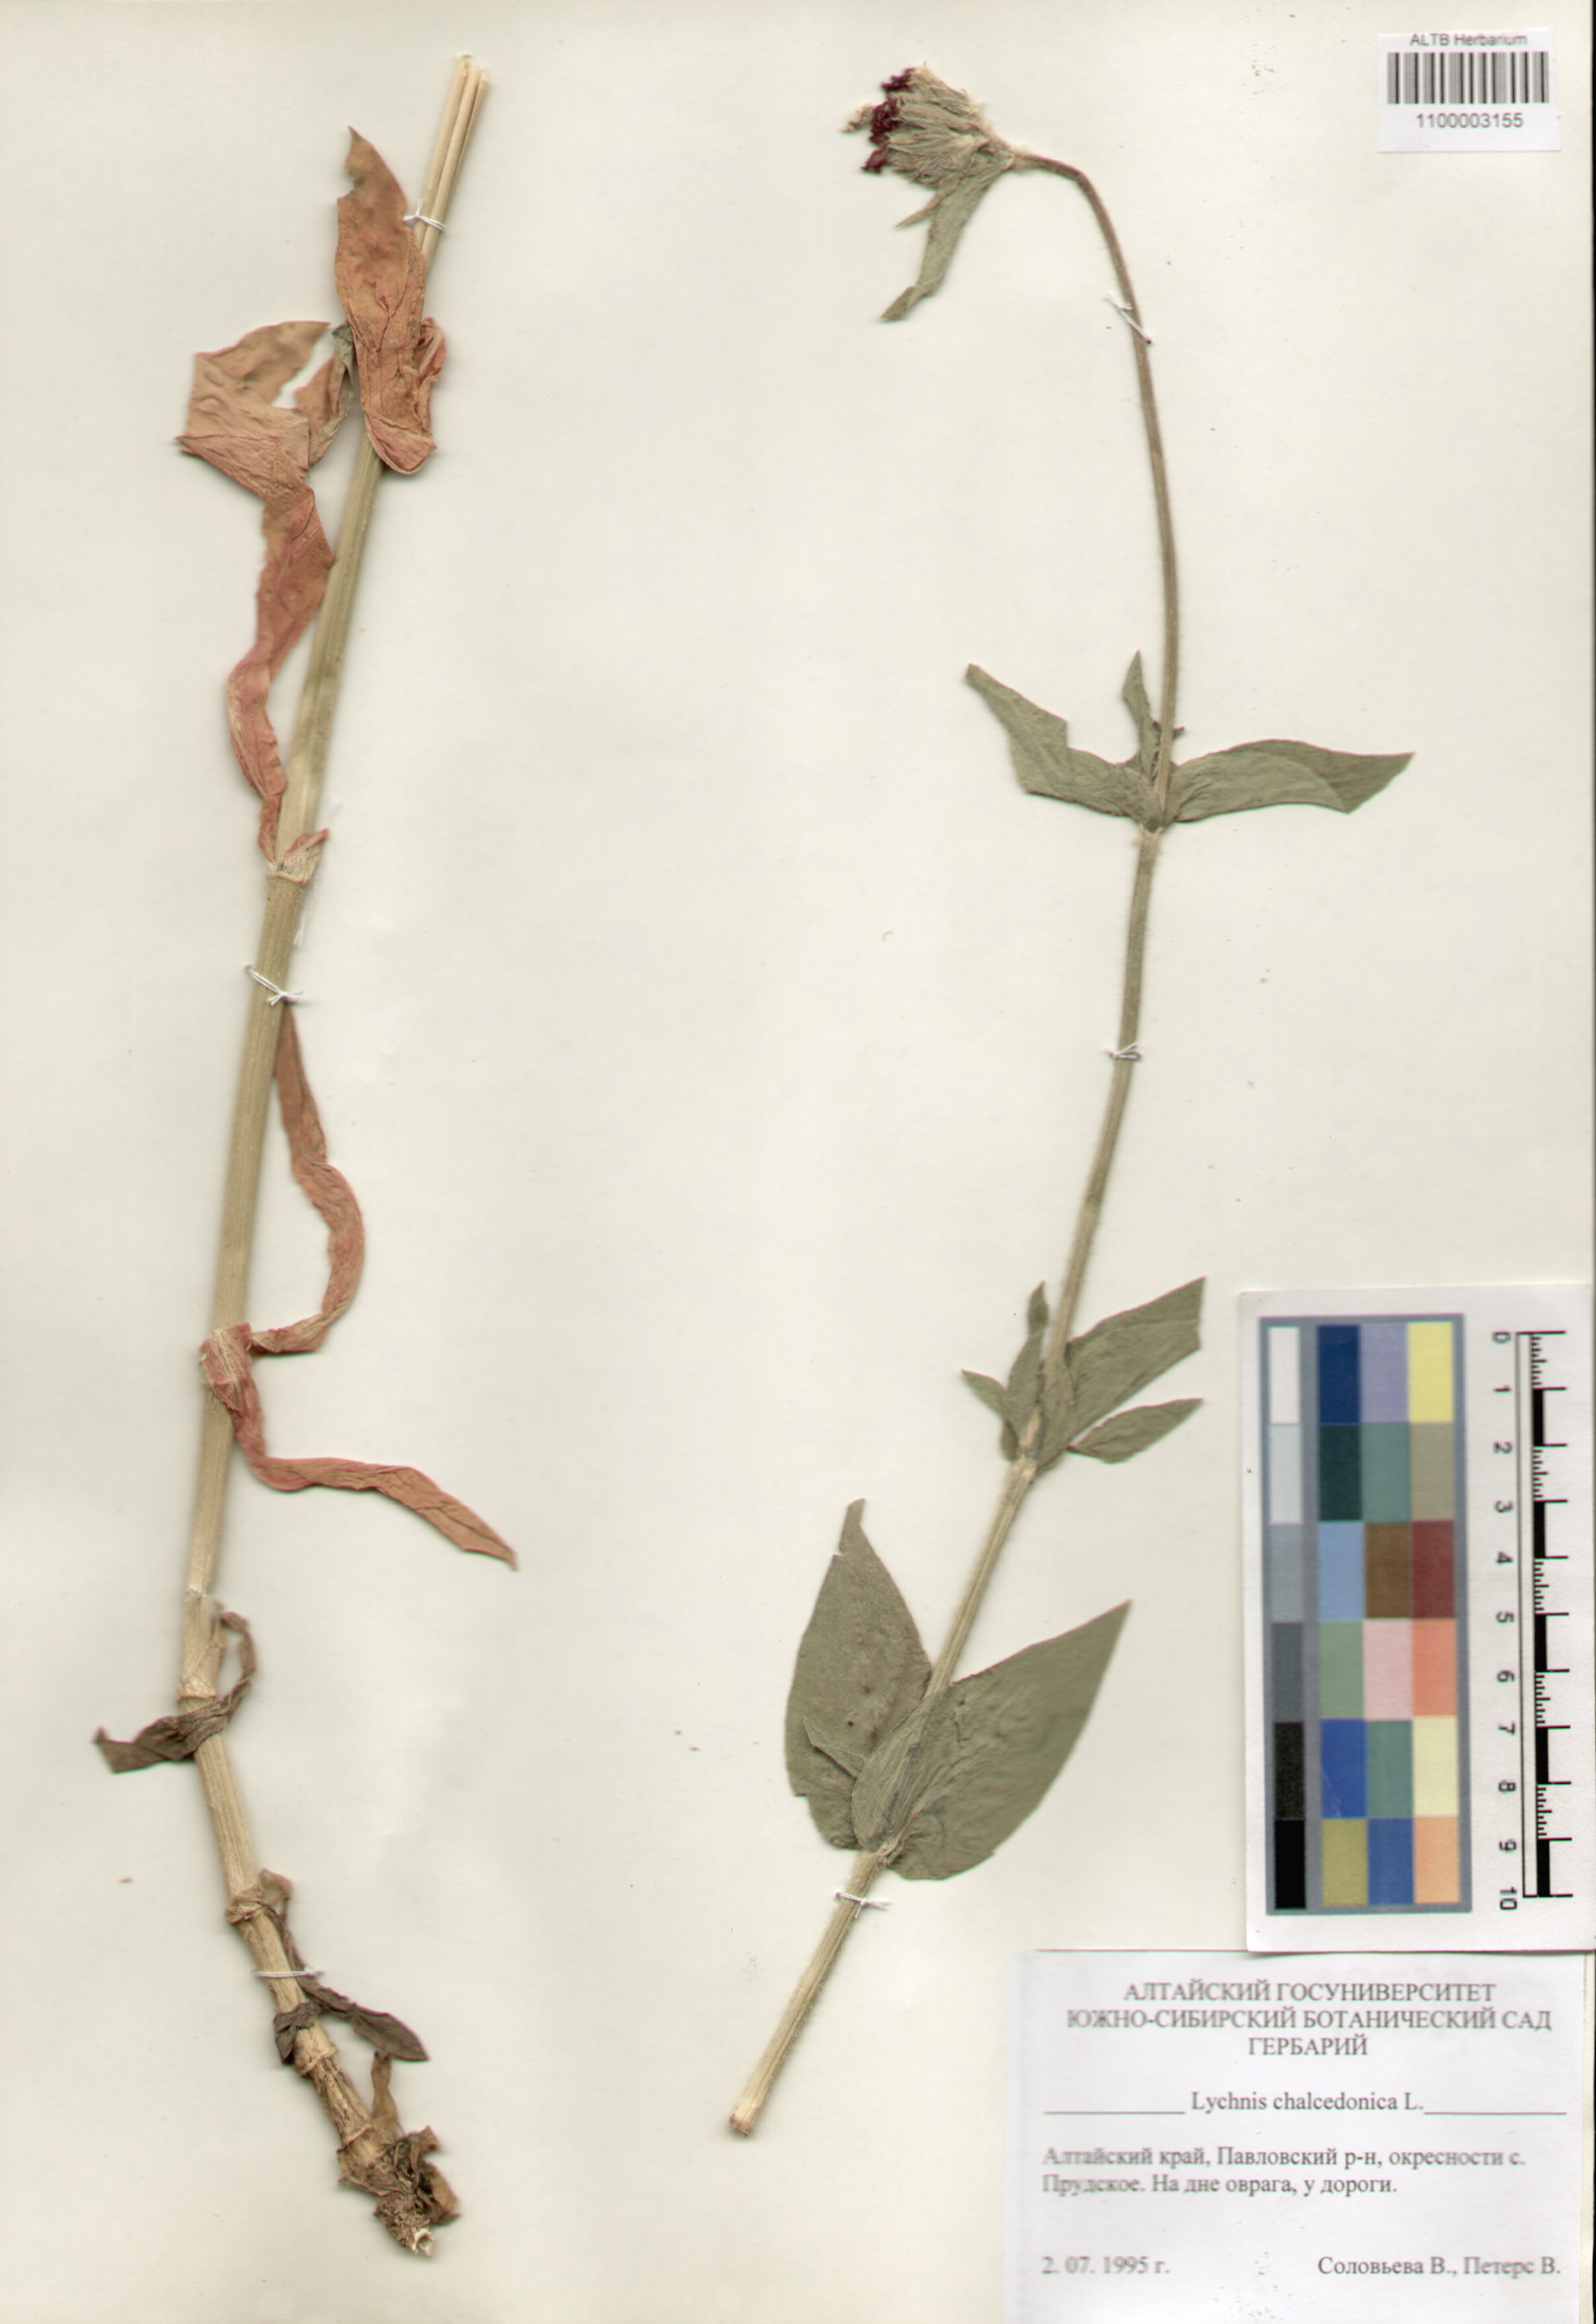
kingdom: Plantae
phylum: Tracheophyta
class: Magnoliopsida
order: Caryophyllales
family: Caryophyllaceae
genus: Silene
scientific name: Silene chalcedonica
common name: Maltese-cross
